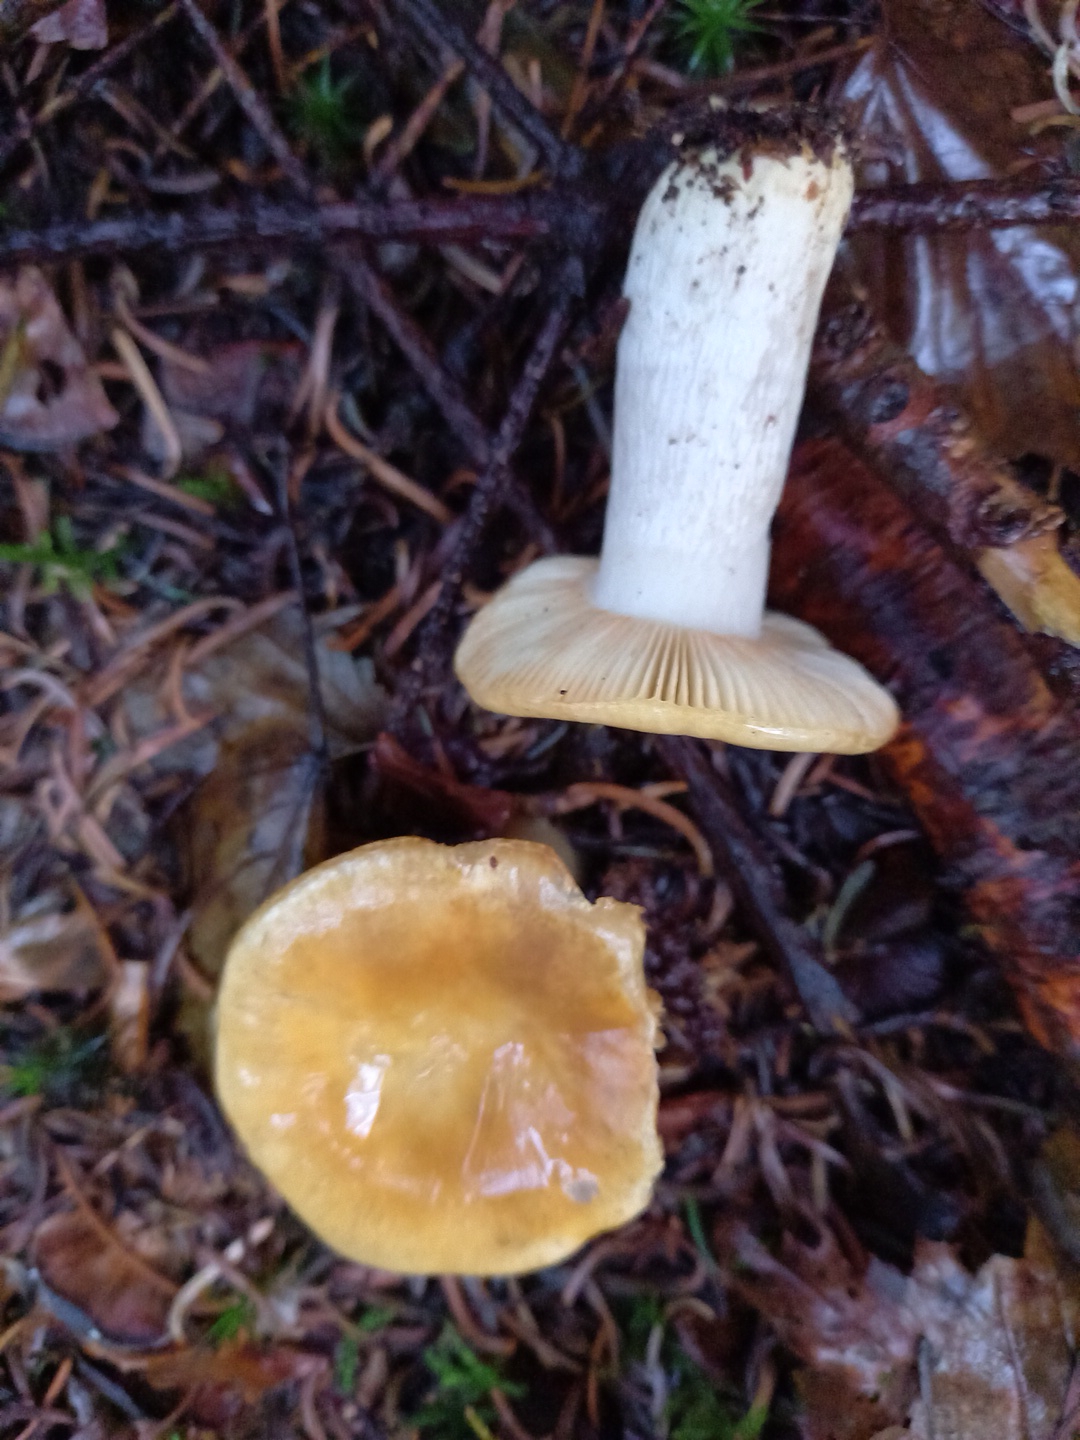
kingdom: Fungi
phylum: Basidiomycota
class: Agaricomycetes
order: Russulales
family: Russulaceae
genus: Russula
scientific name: Russula ochroleuca
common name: okkergul skørhat
